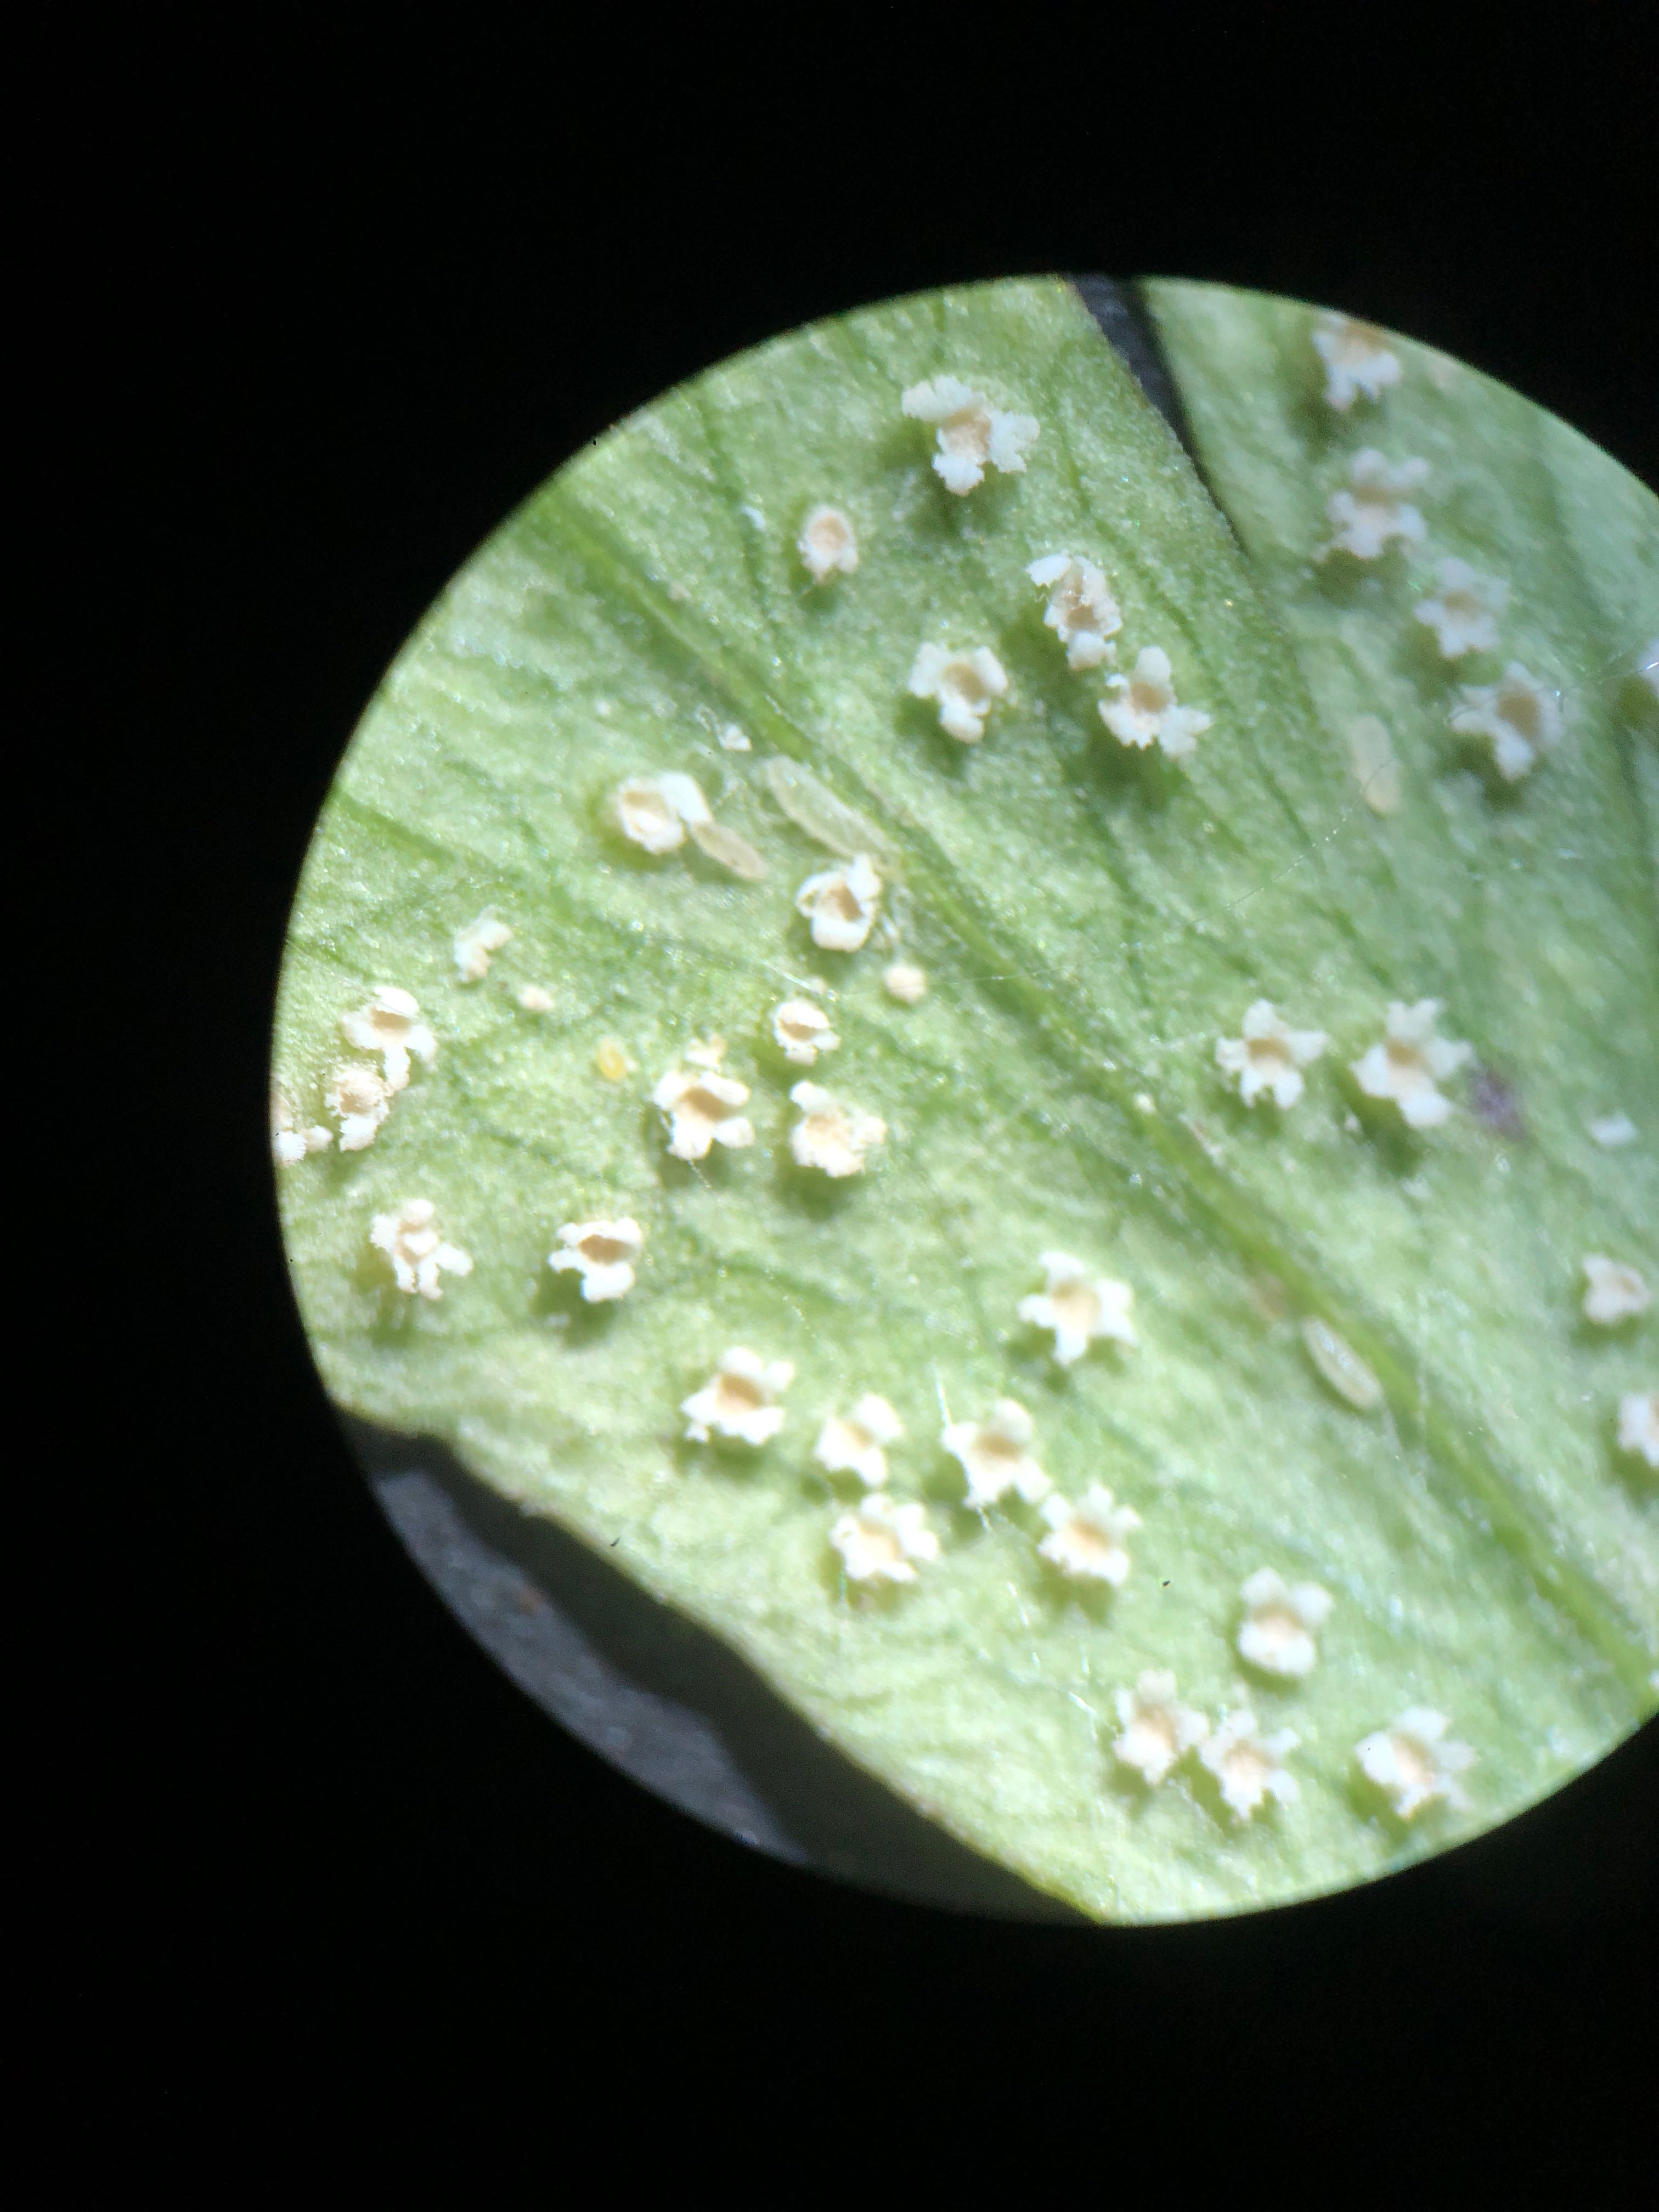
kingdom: Fungi
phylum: Basidiomycota
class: Pucciniomycetes
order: Pucciniales
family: Ochropsoraceae
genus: Ochropsora
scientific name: Ochropsora ariae
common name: anemone-okkerpletrust
